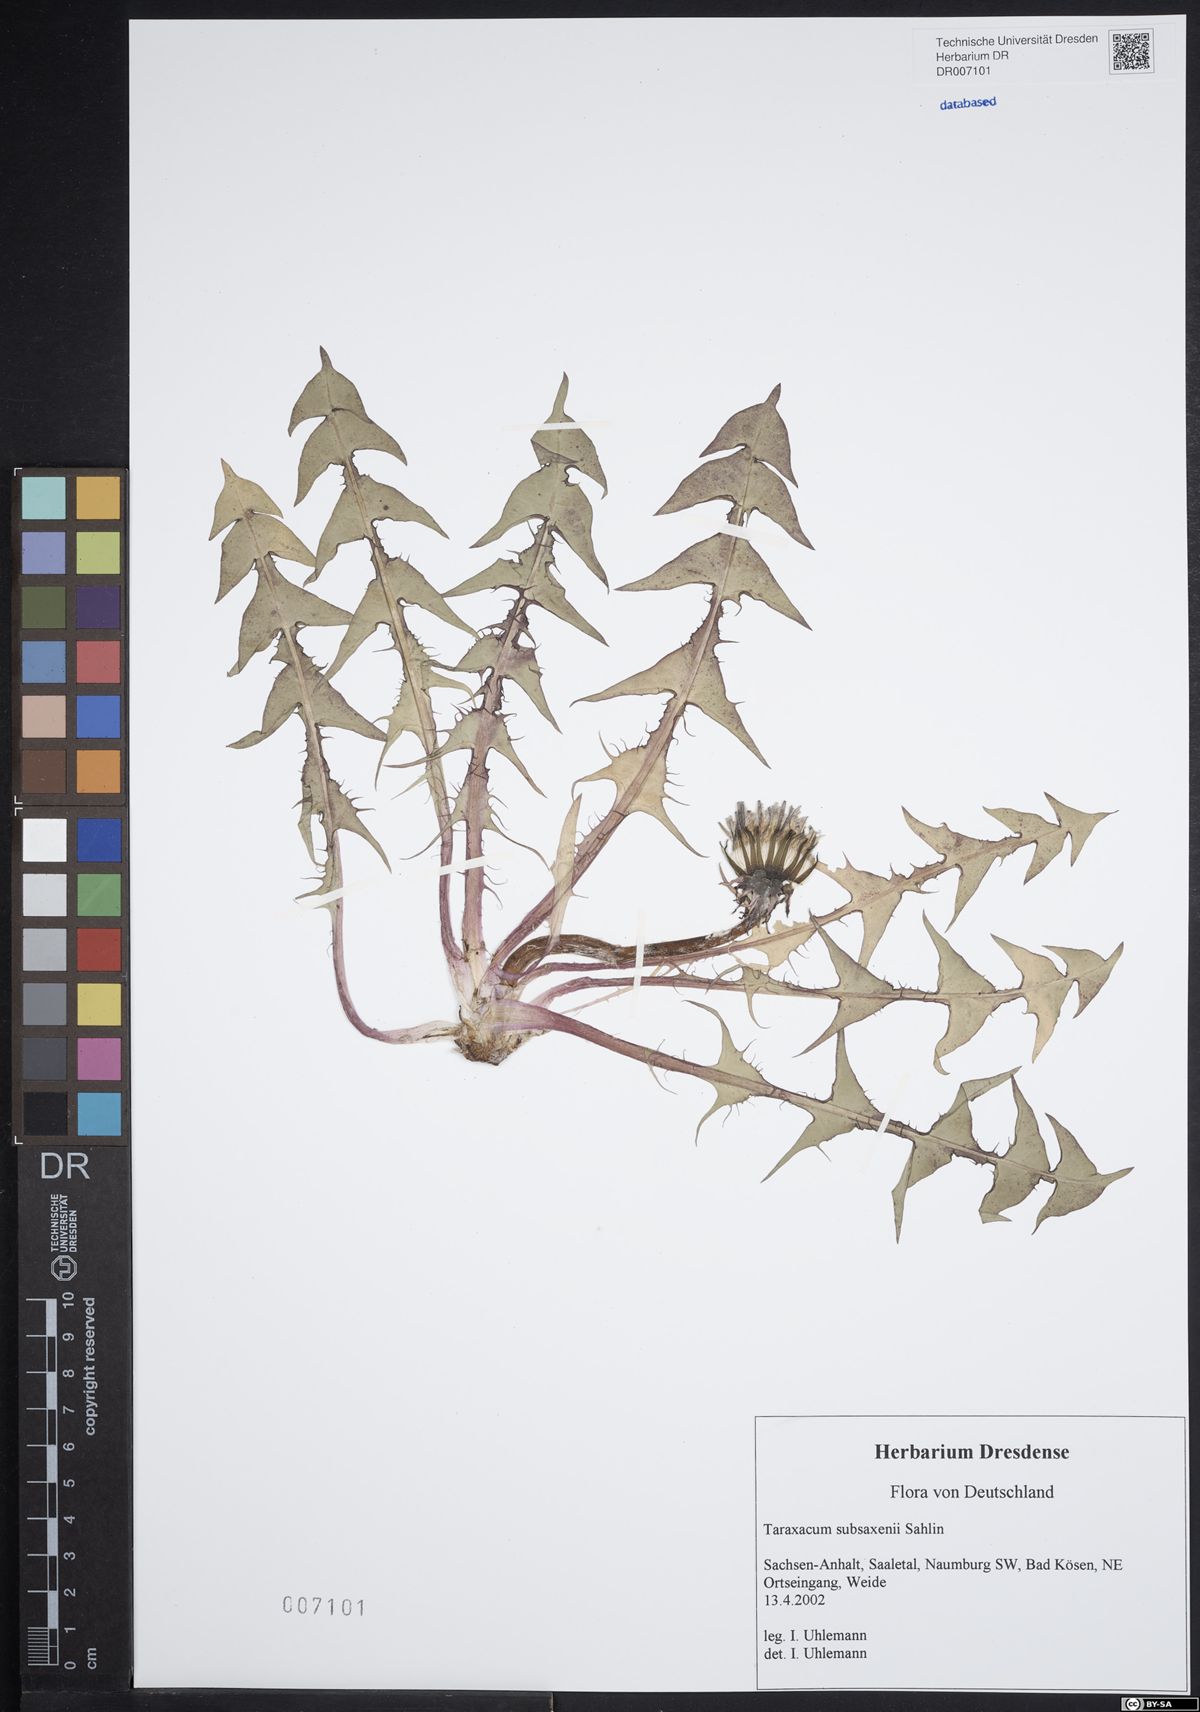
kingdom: Plantae
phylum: Tracheophyta
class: Magnoliopsida
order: Asterales
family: Asteraceae
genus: Taraxacum
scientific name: Taraxacum subsaxenii
